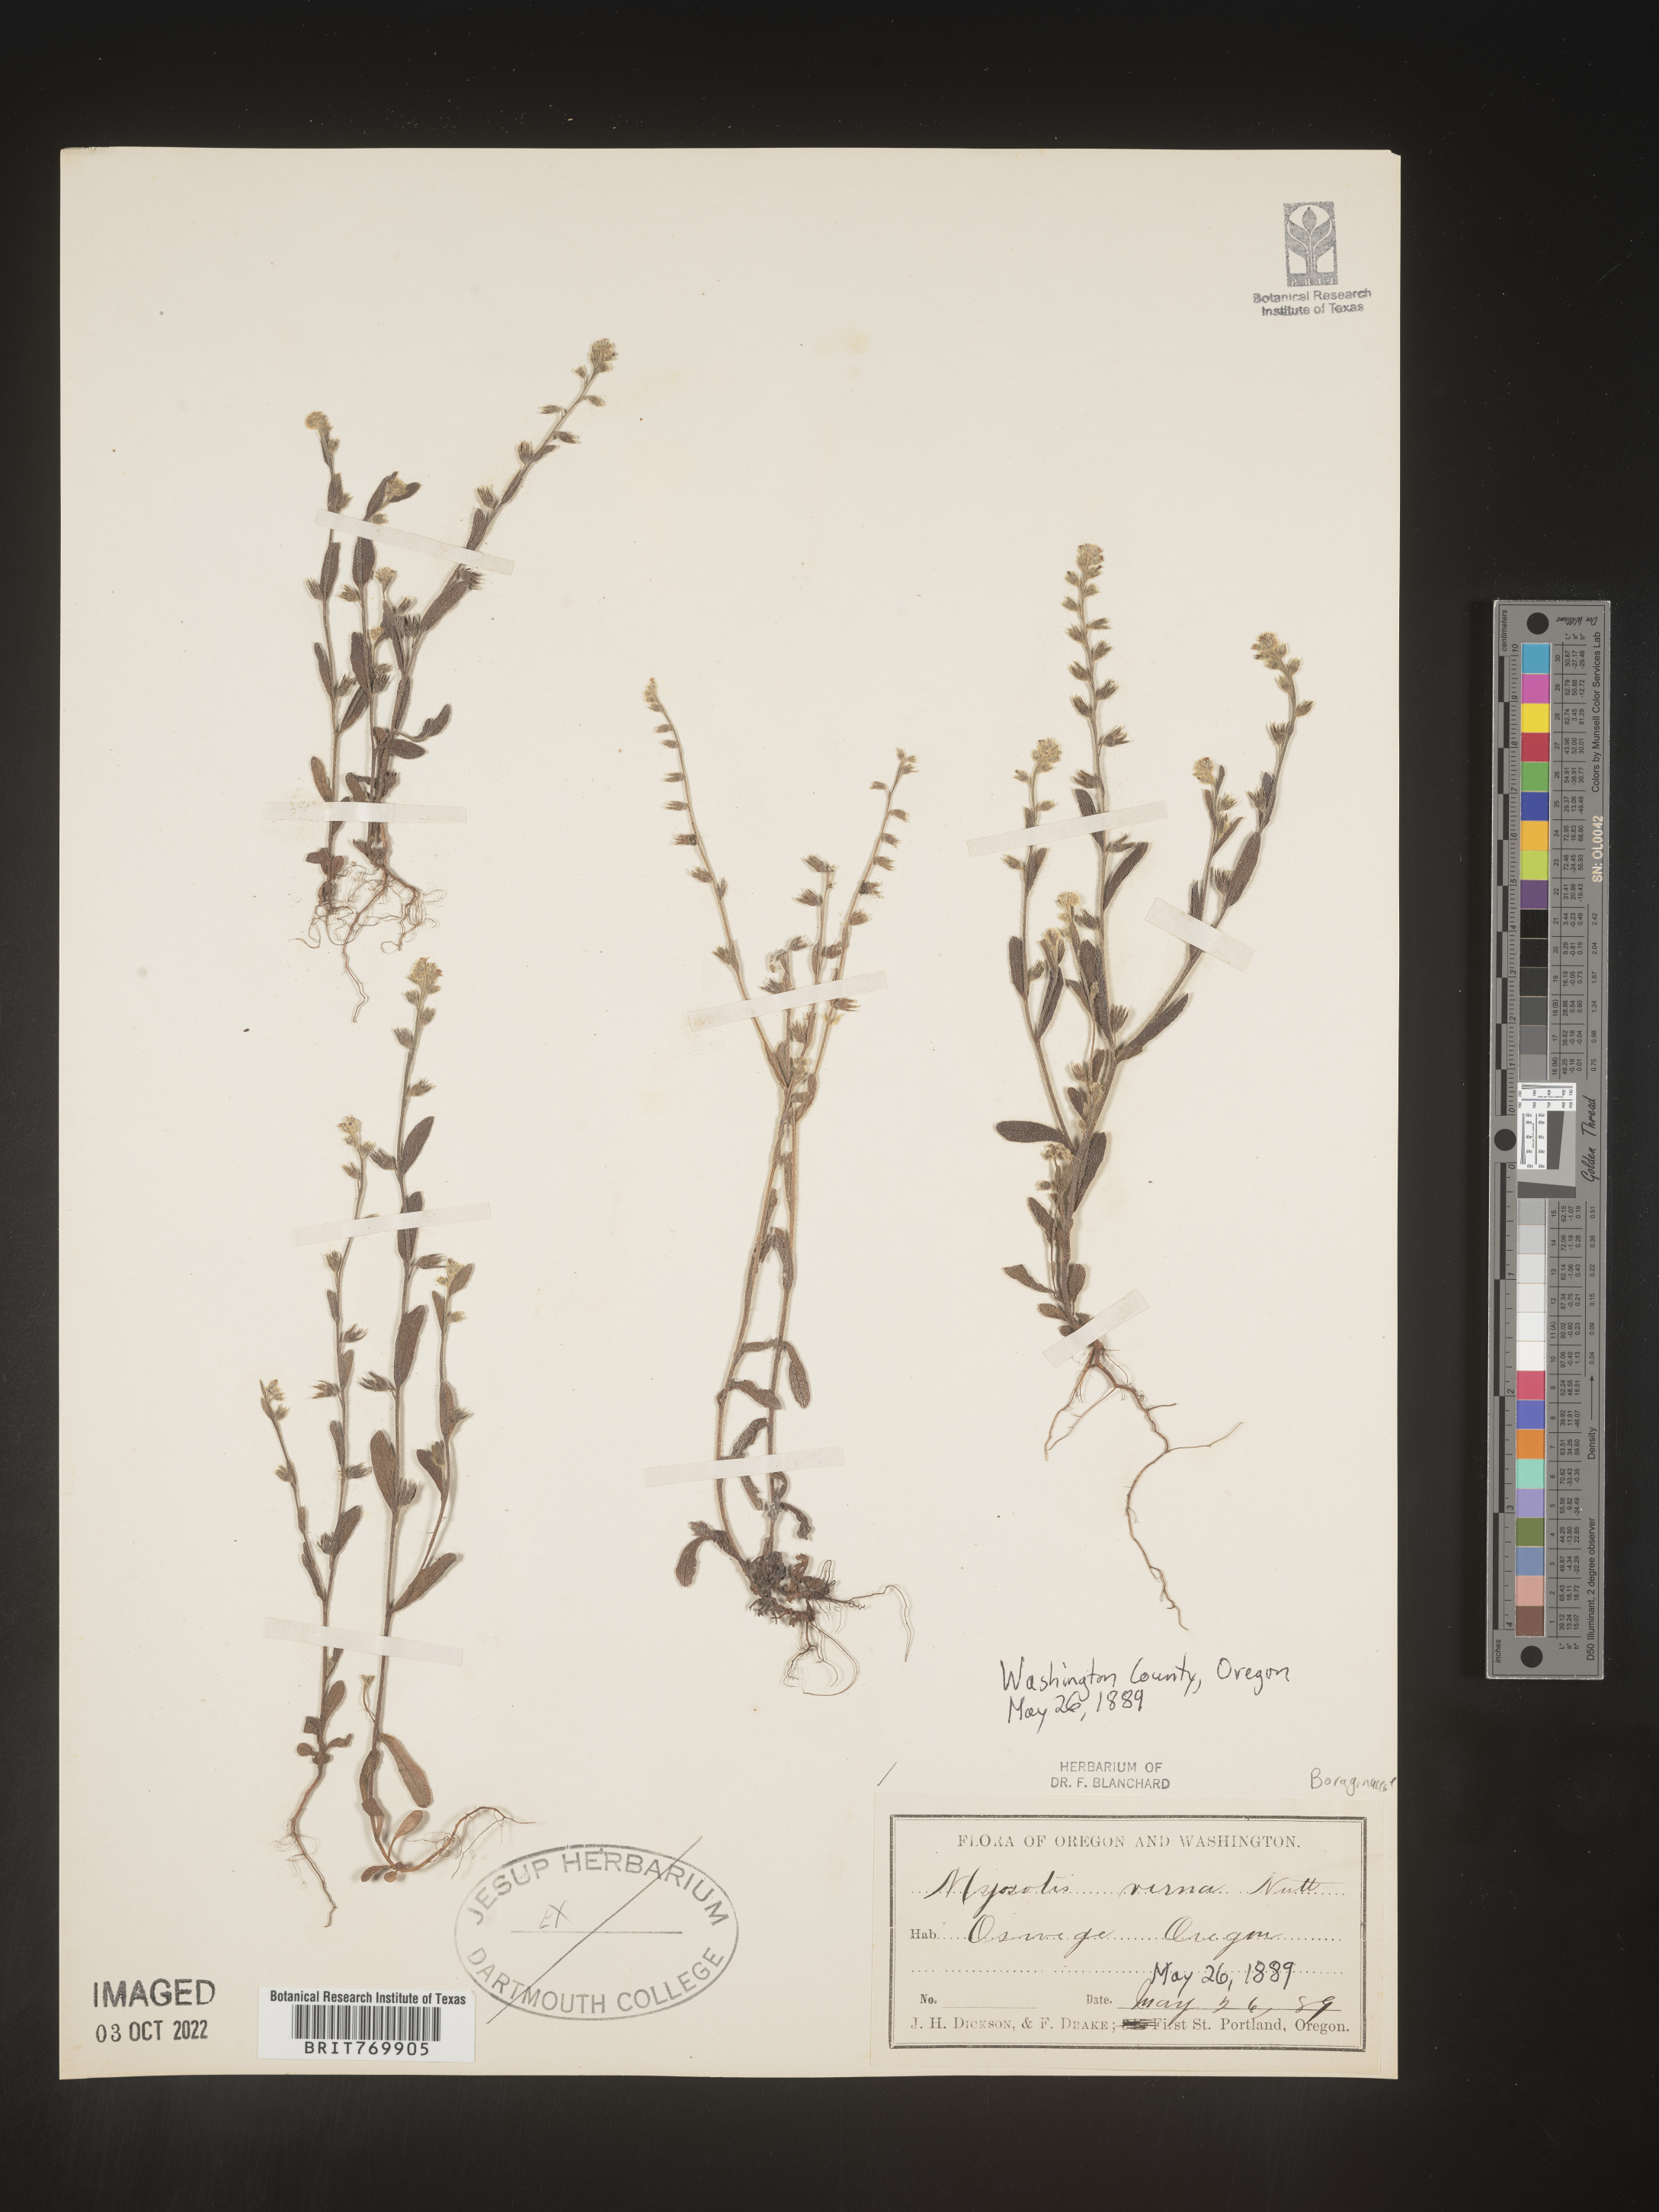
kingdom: Plantae
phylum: Tracheophyta
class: Magnoliopsida
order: Boraginales
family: Boraginaceae
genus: Myosotis
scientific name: Myosotis verna
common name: Early forget-me-not
